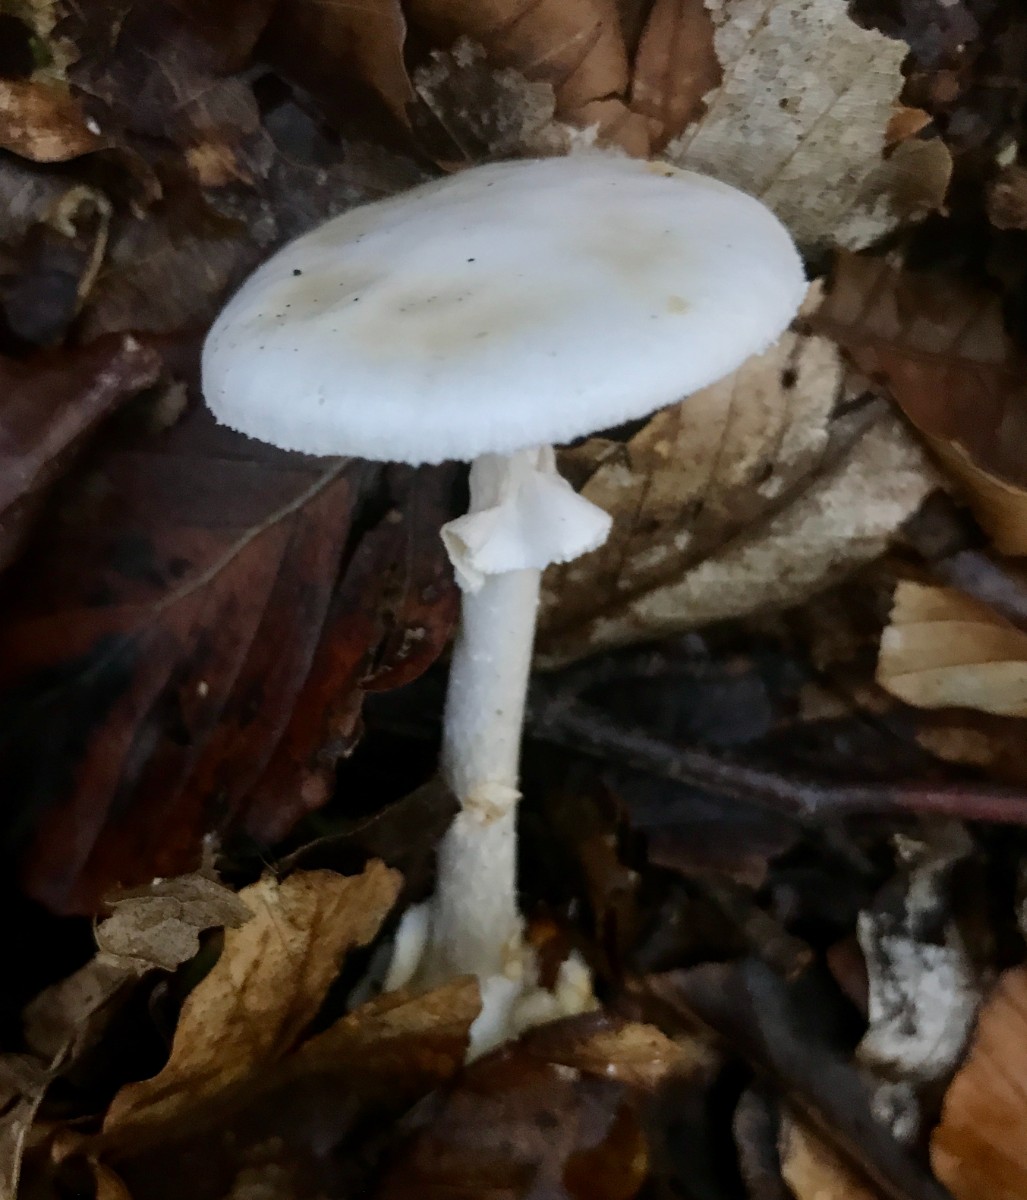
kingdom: Fungi
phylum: Basidiomycota
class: Agaricomycetes
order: Agaricales
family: Amanitaceae
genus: Amanita
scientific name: Amanita citrina
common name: kugleknoldet fluesvamp
